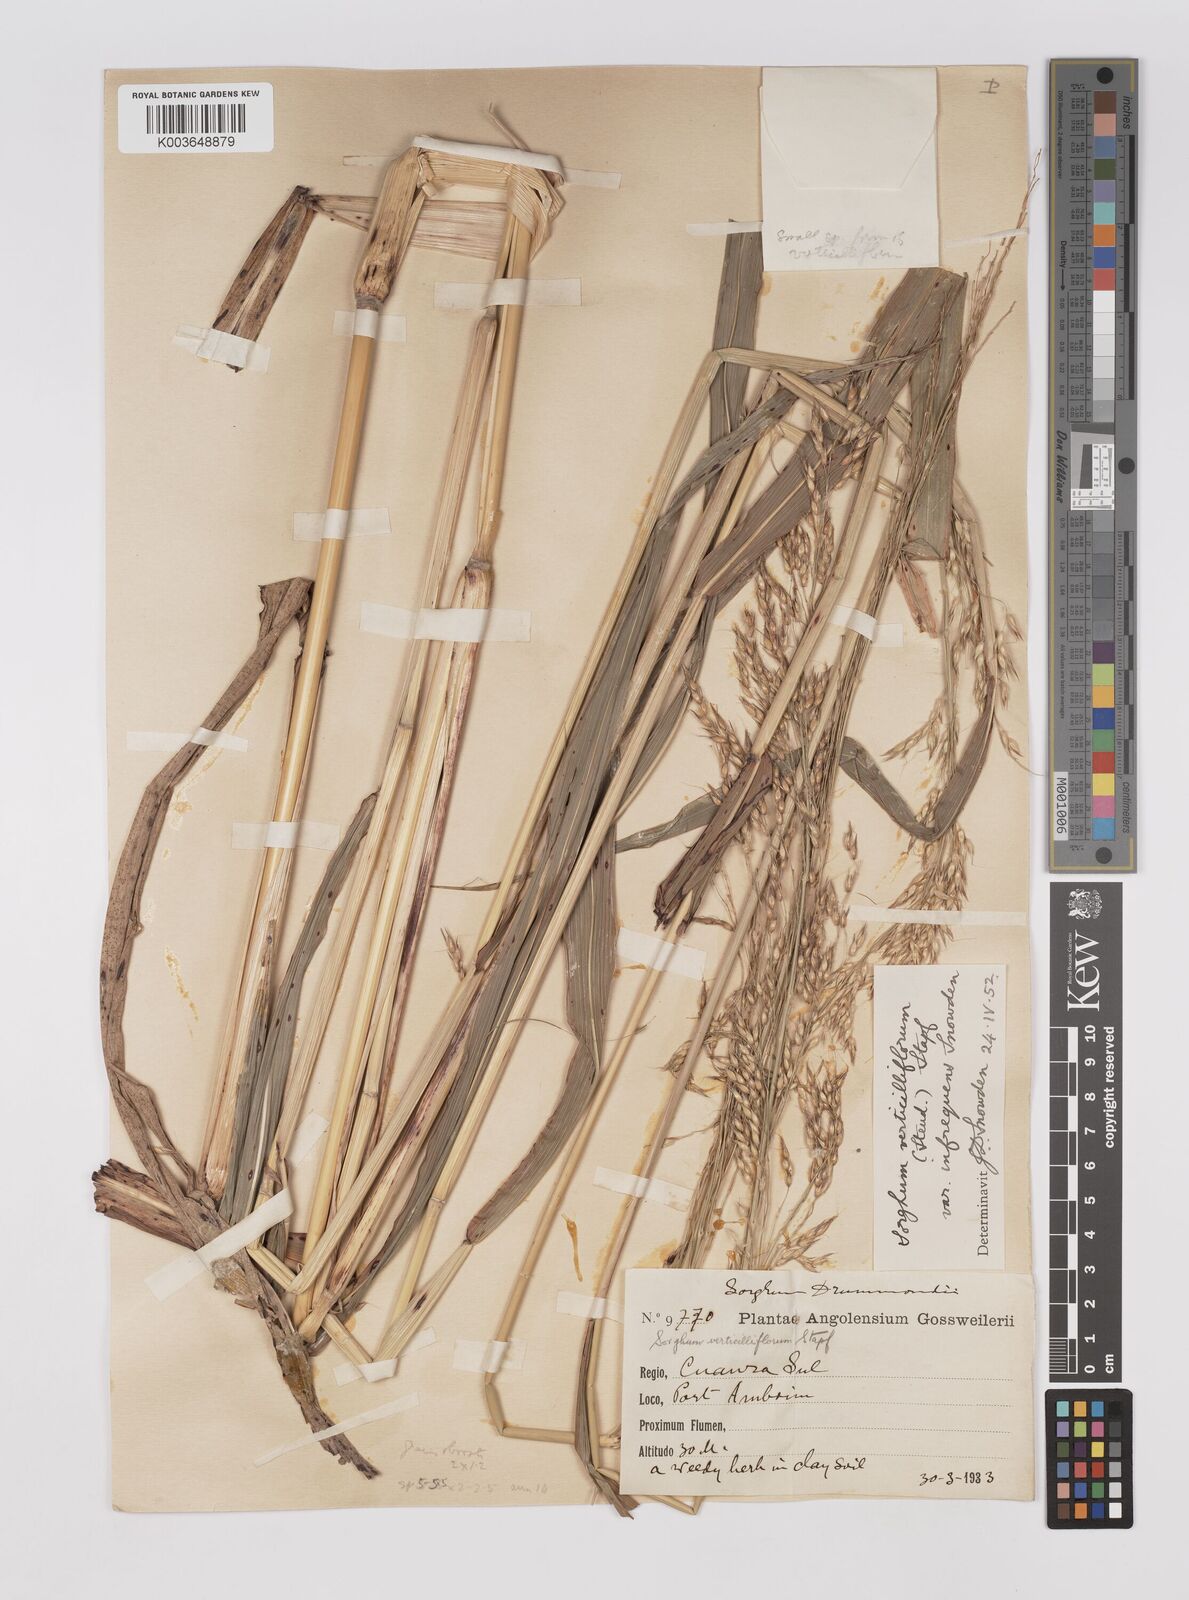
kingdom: Plantae
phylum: Tracheophyta
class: Liliopsida
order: Poales
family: Poaceae
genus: Sorghum
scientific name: Sorghum arundinaceum
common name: Sorghum
